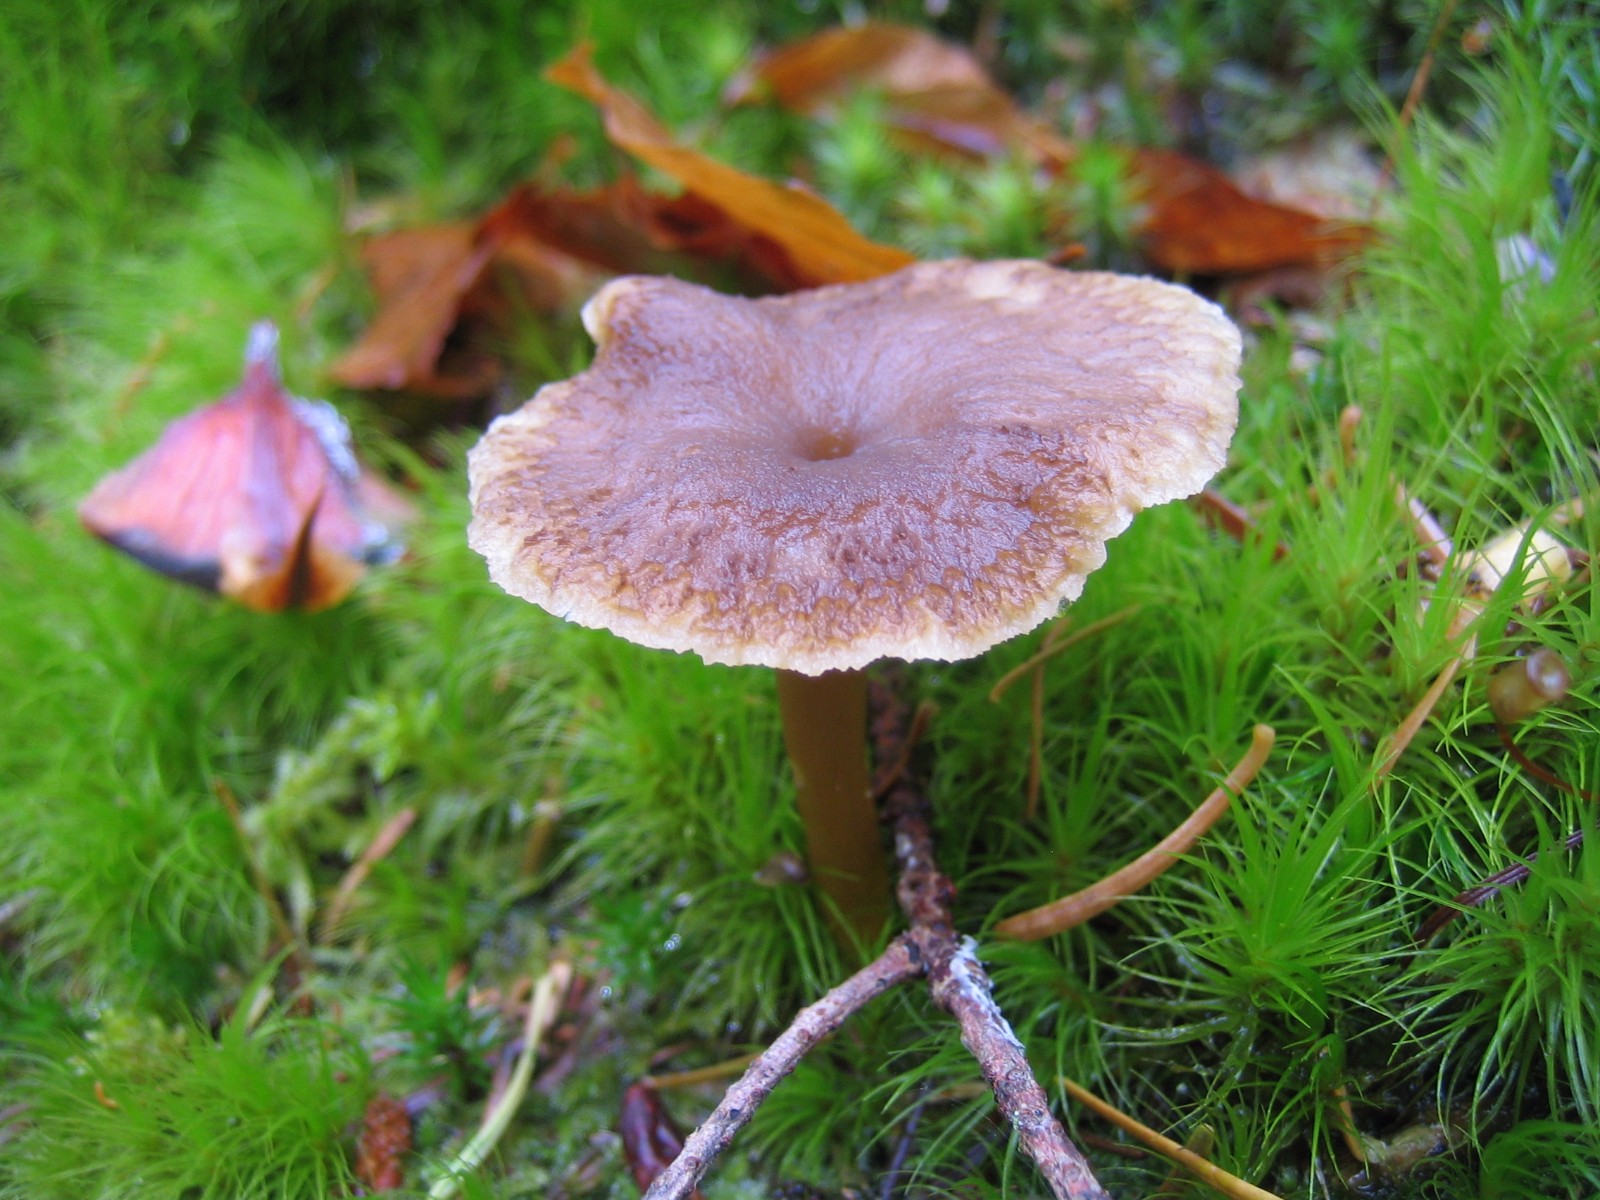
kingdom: Fungi
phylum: Basidiomycota
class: Agaricomycetes
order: Cantharellales
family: Hydnaceae
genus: Craterellus
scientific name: Craterellus tubaeformis
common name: tragt-kantarel
